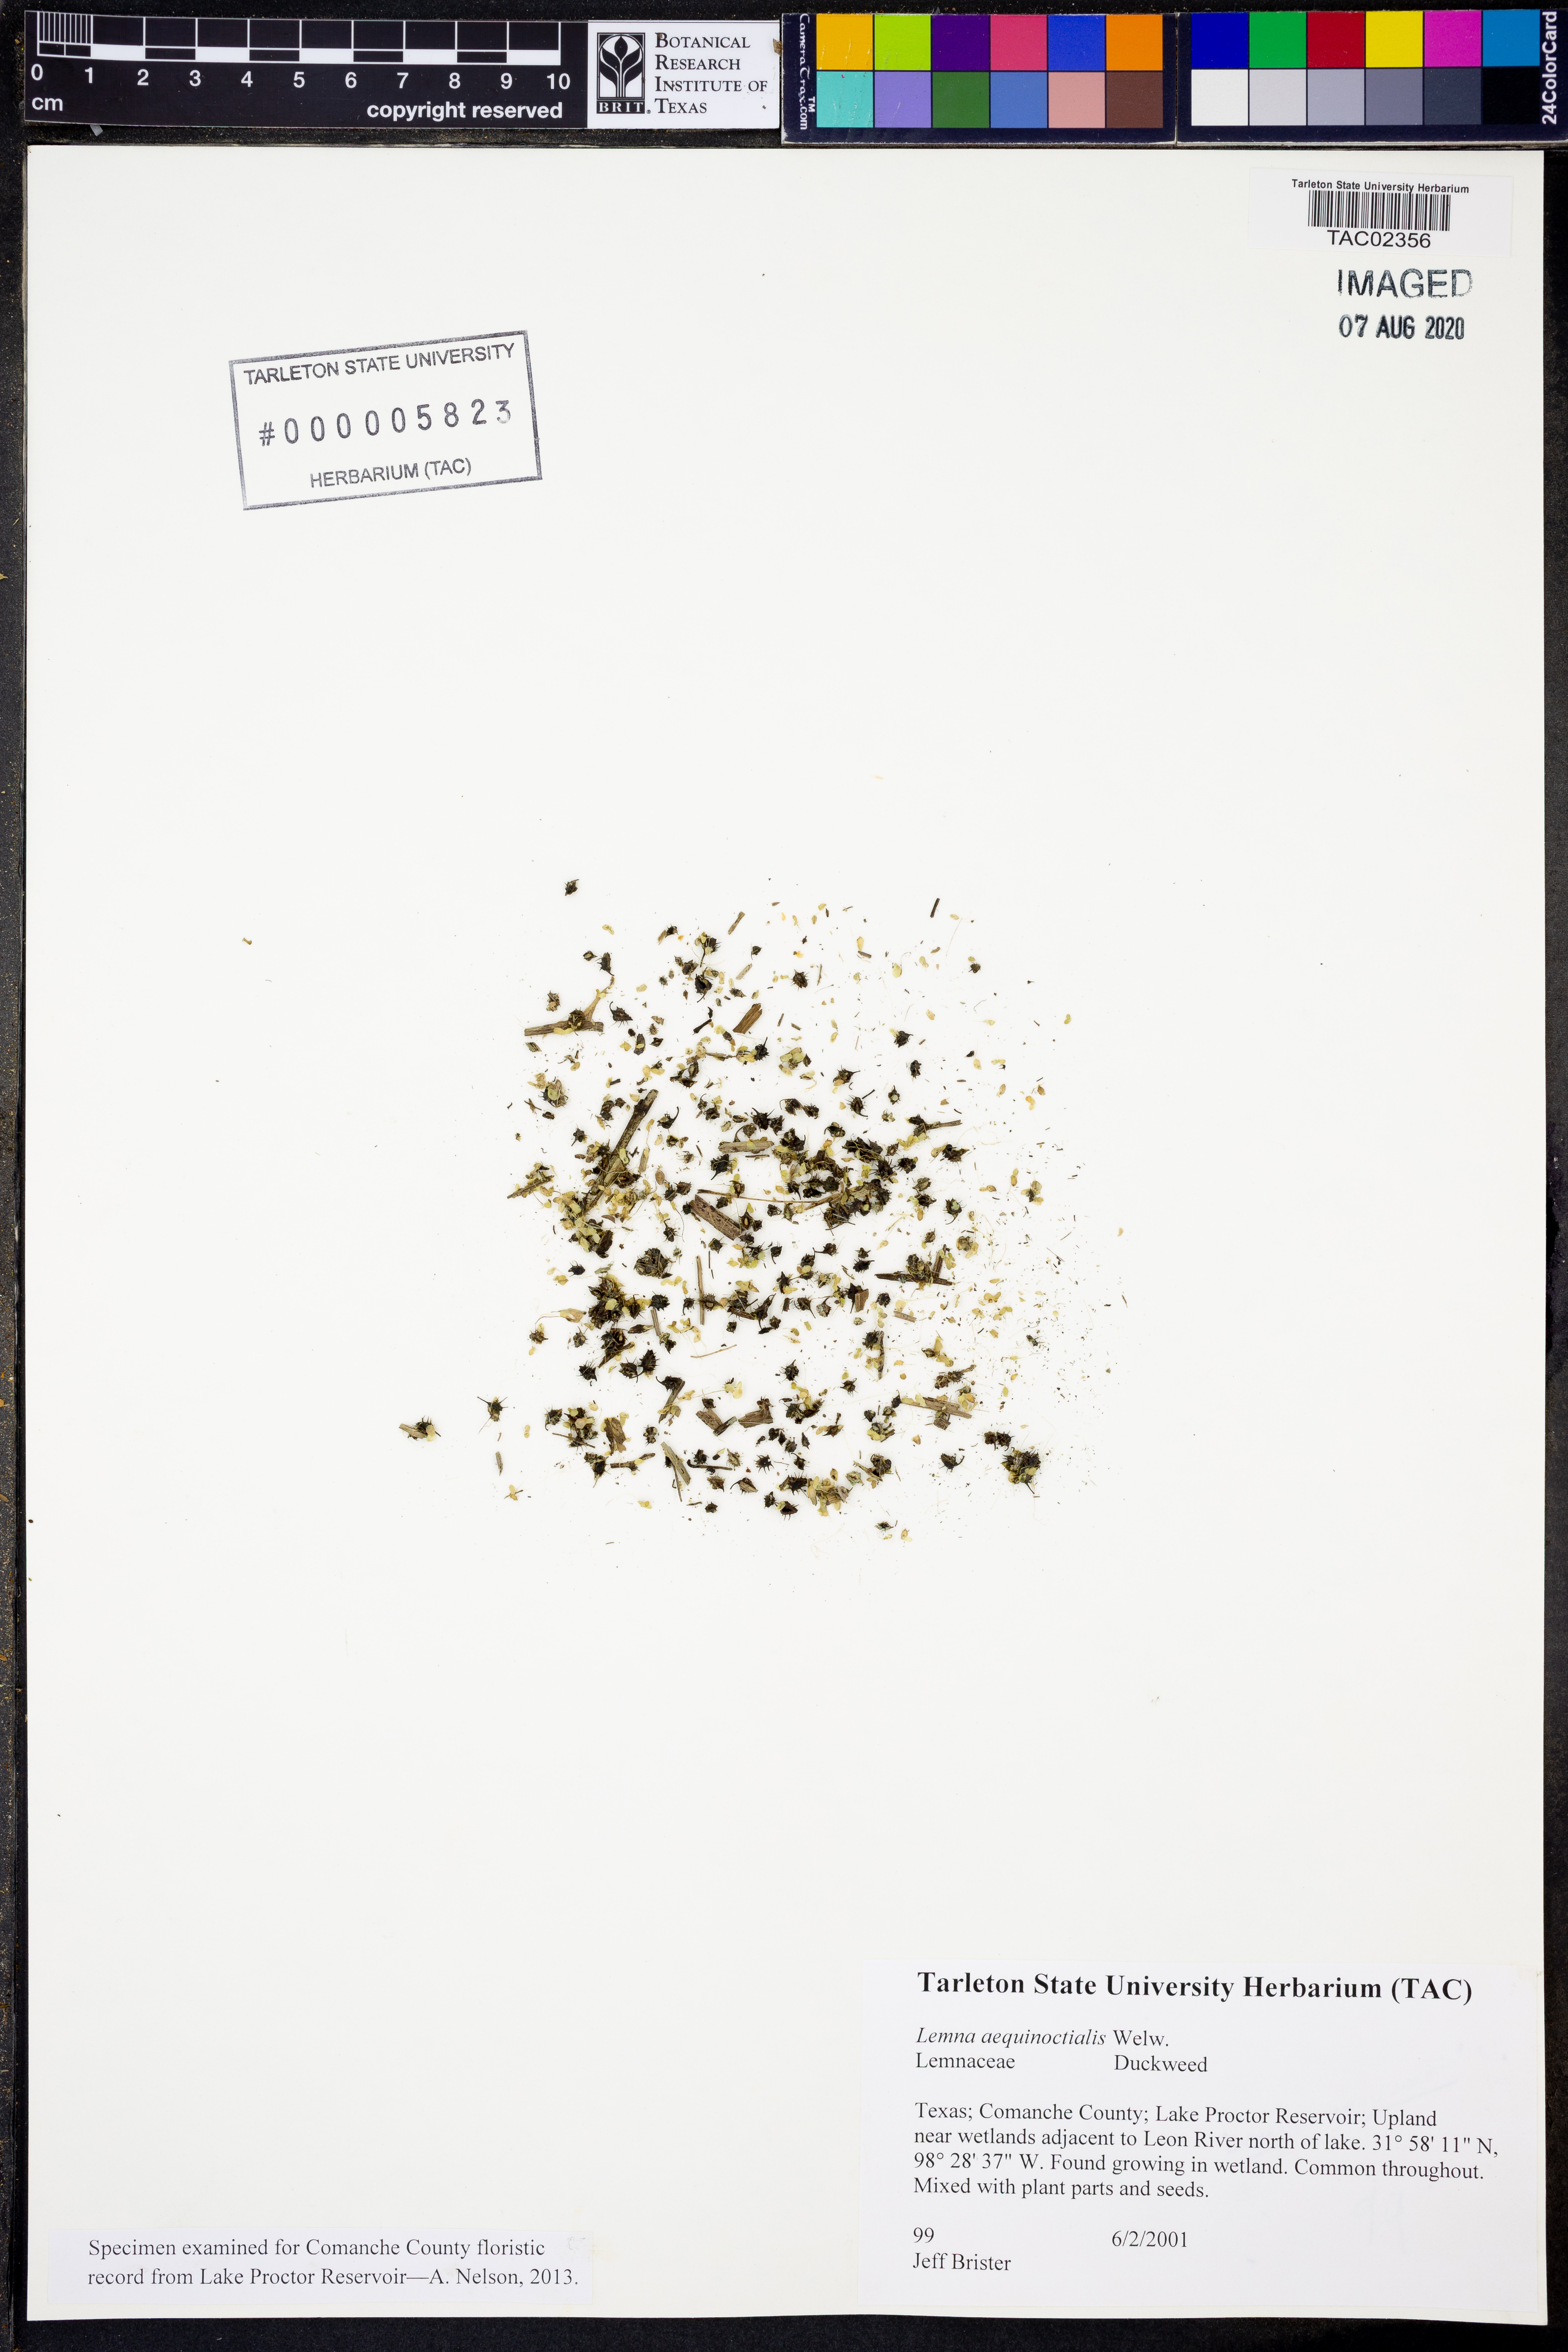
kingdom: Plantae
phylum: Tracheophyta
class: Liliopsida
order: Alismatales
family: Araceae
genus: Lemna
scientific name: Lemna aequinoctialis
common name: Duckweed
